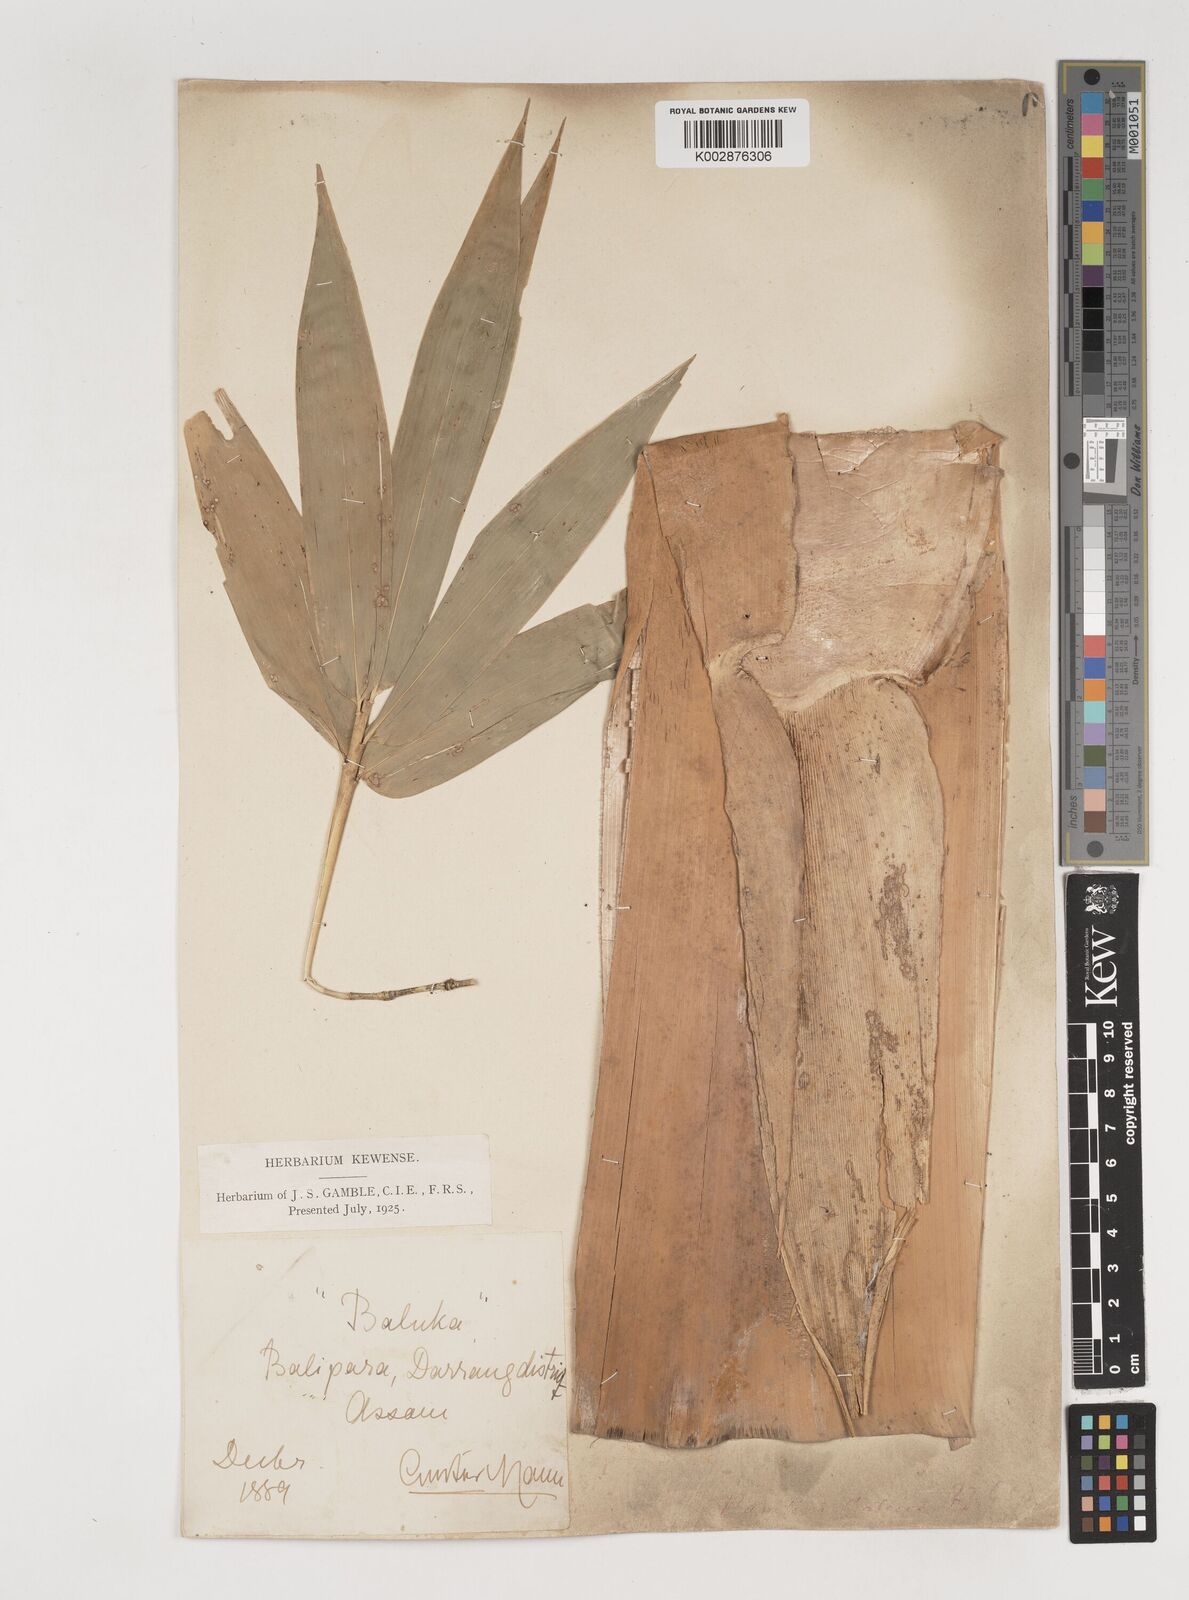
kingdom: Plantae
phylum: Tracheophyta
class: Liliopsida
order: Poales
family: Poaceae
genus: Bambusa
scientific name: Bambusa balcooa
